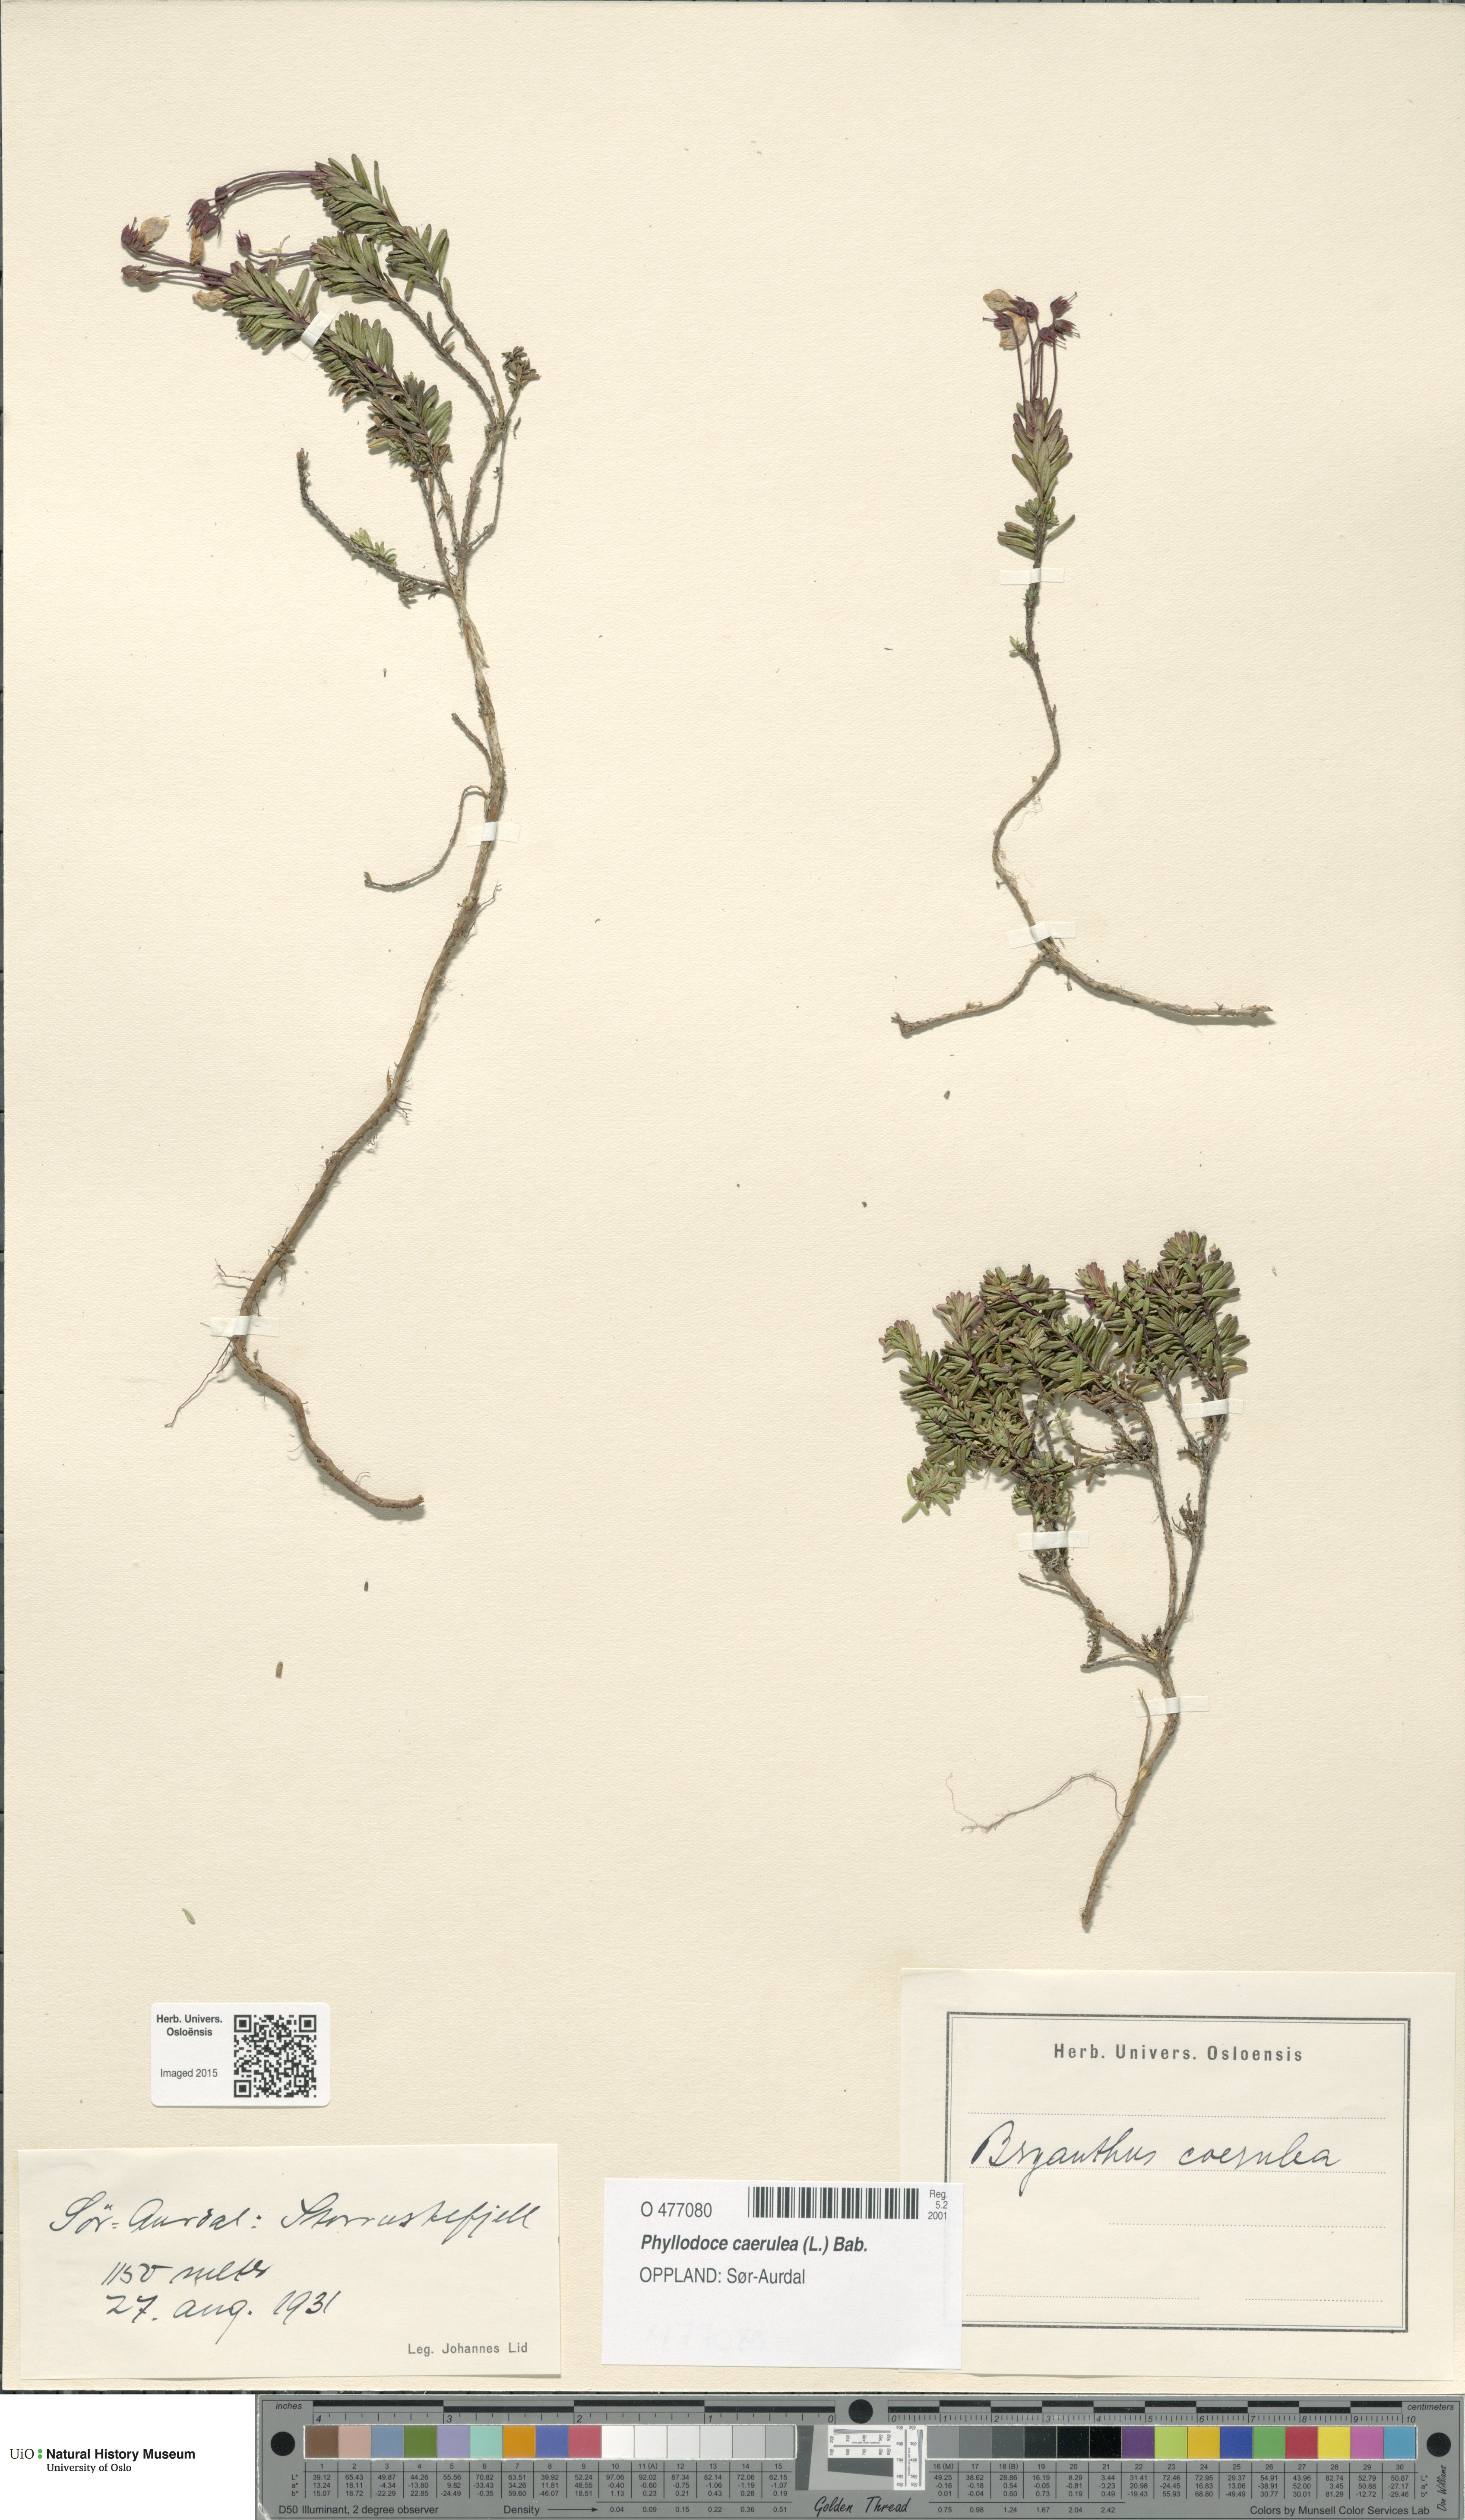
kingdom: Plantae
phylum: Tracheophyta
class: Magnoliopsida
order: Ericales
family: Ericaceae
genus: Phyllodoce
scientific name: Phyllodoce caerulea
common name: Blue heath
